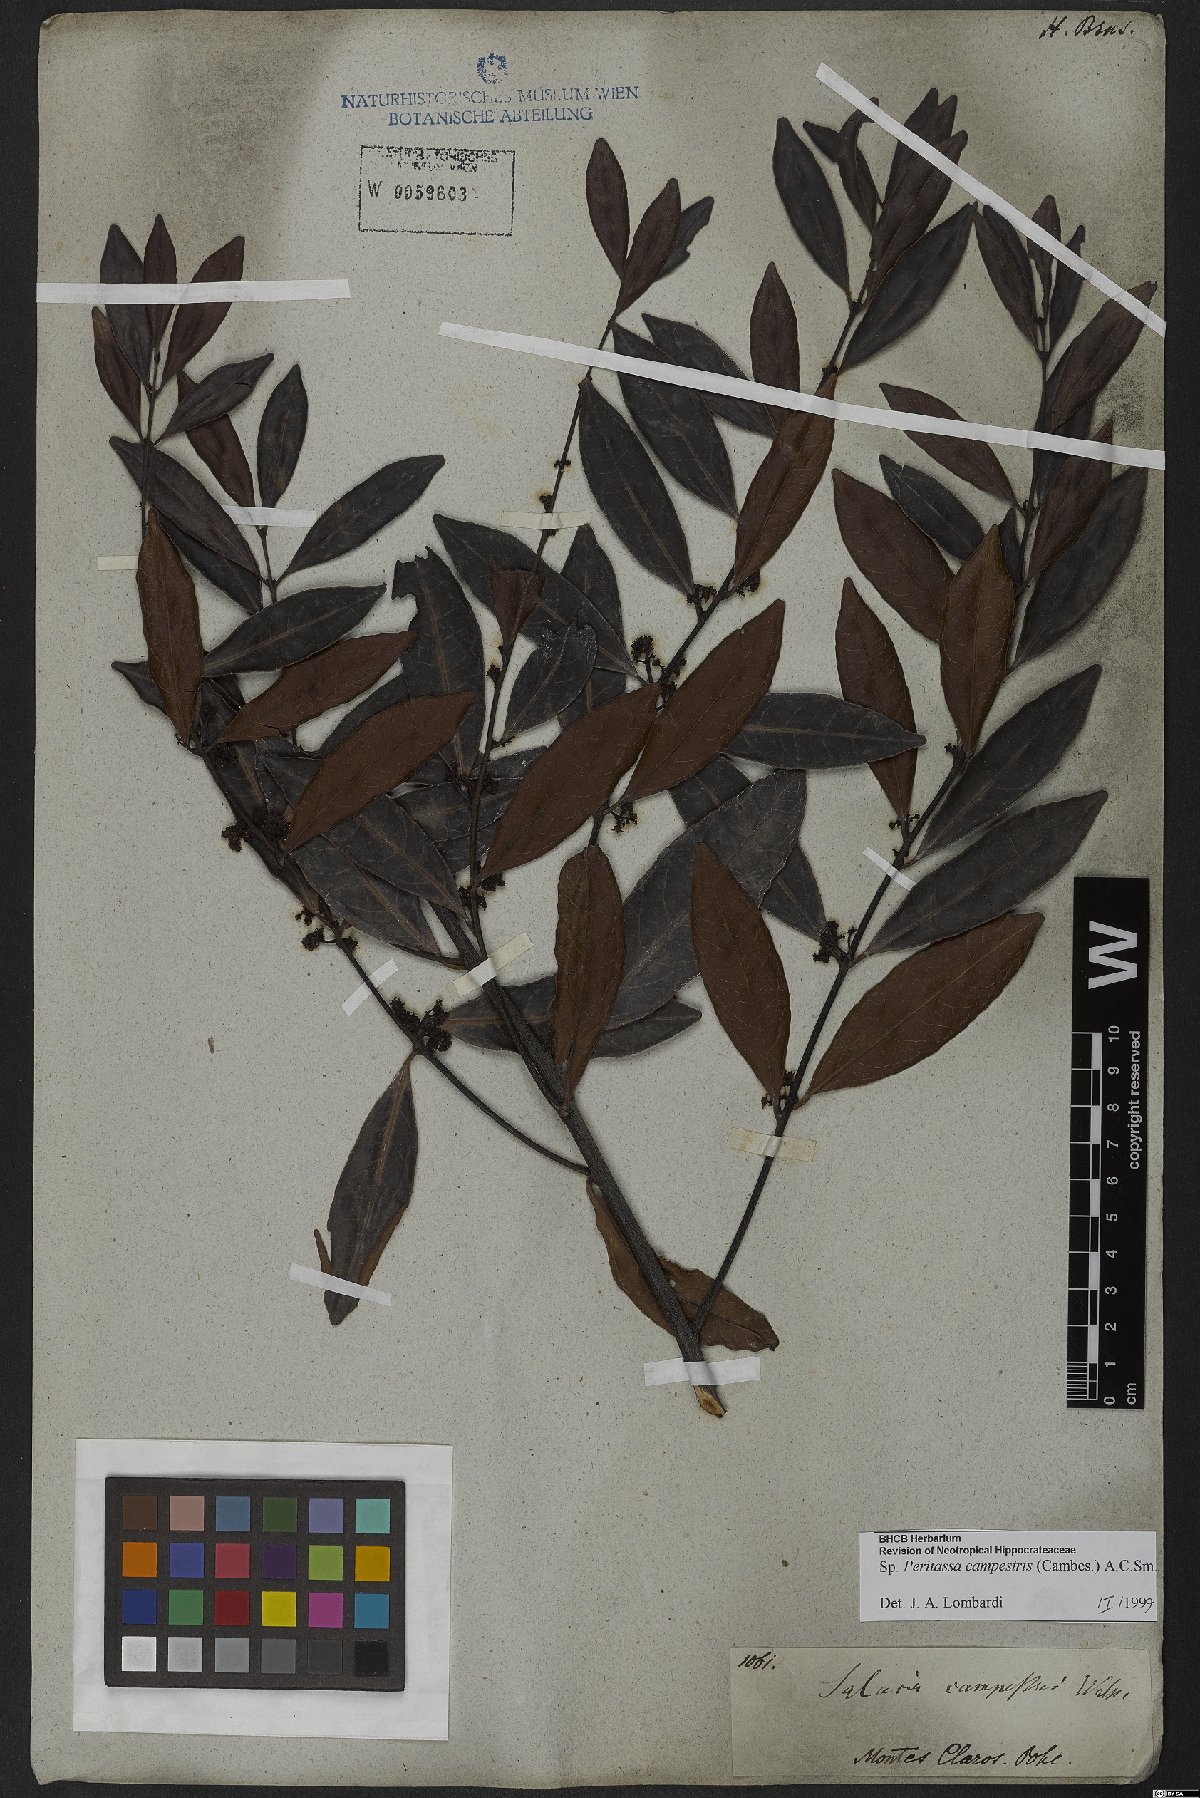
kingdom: Plantae
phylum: Tracheophyta
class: Magnoliopsida
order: Celastrales
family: Celastraceae
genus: Peritassa
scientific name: Peritassa campestris
